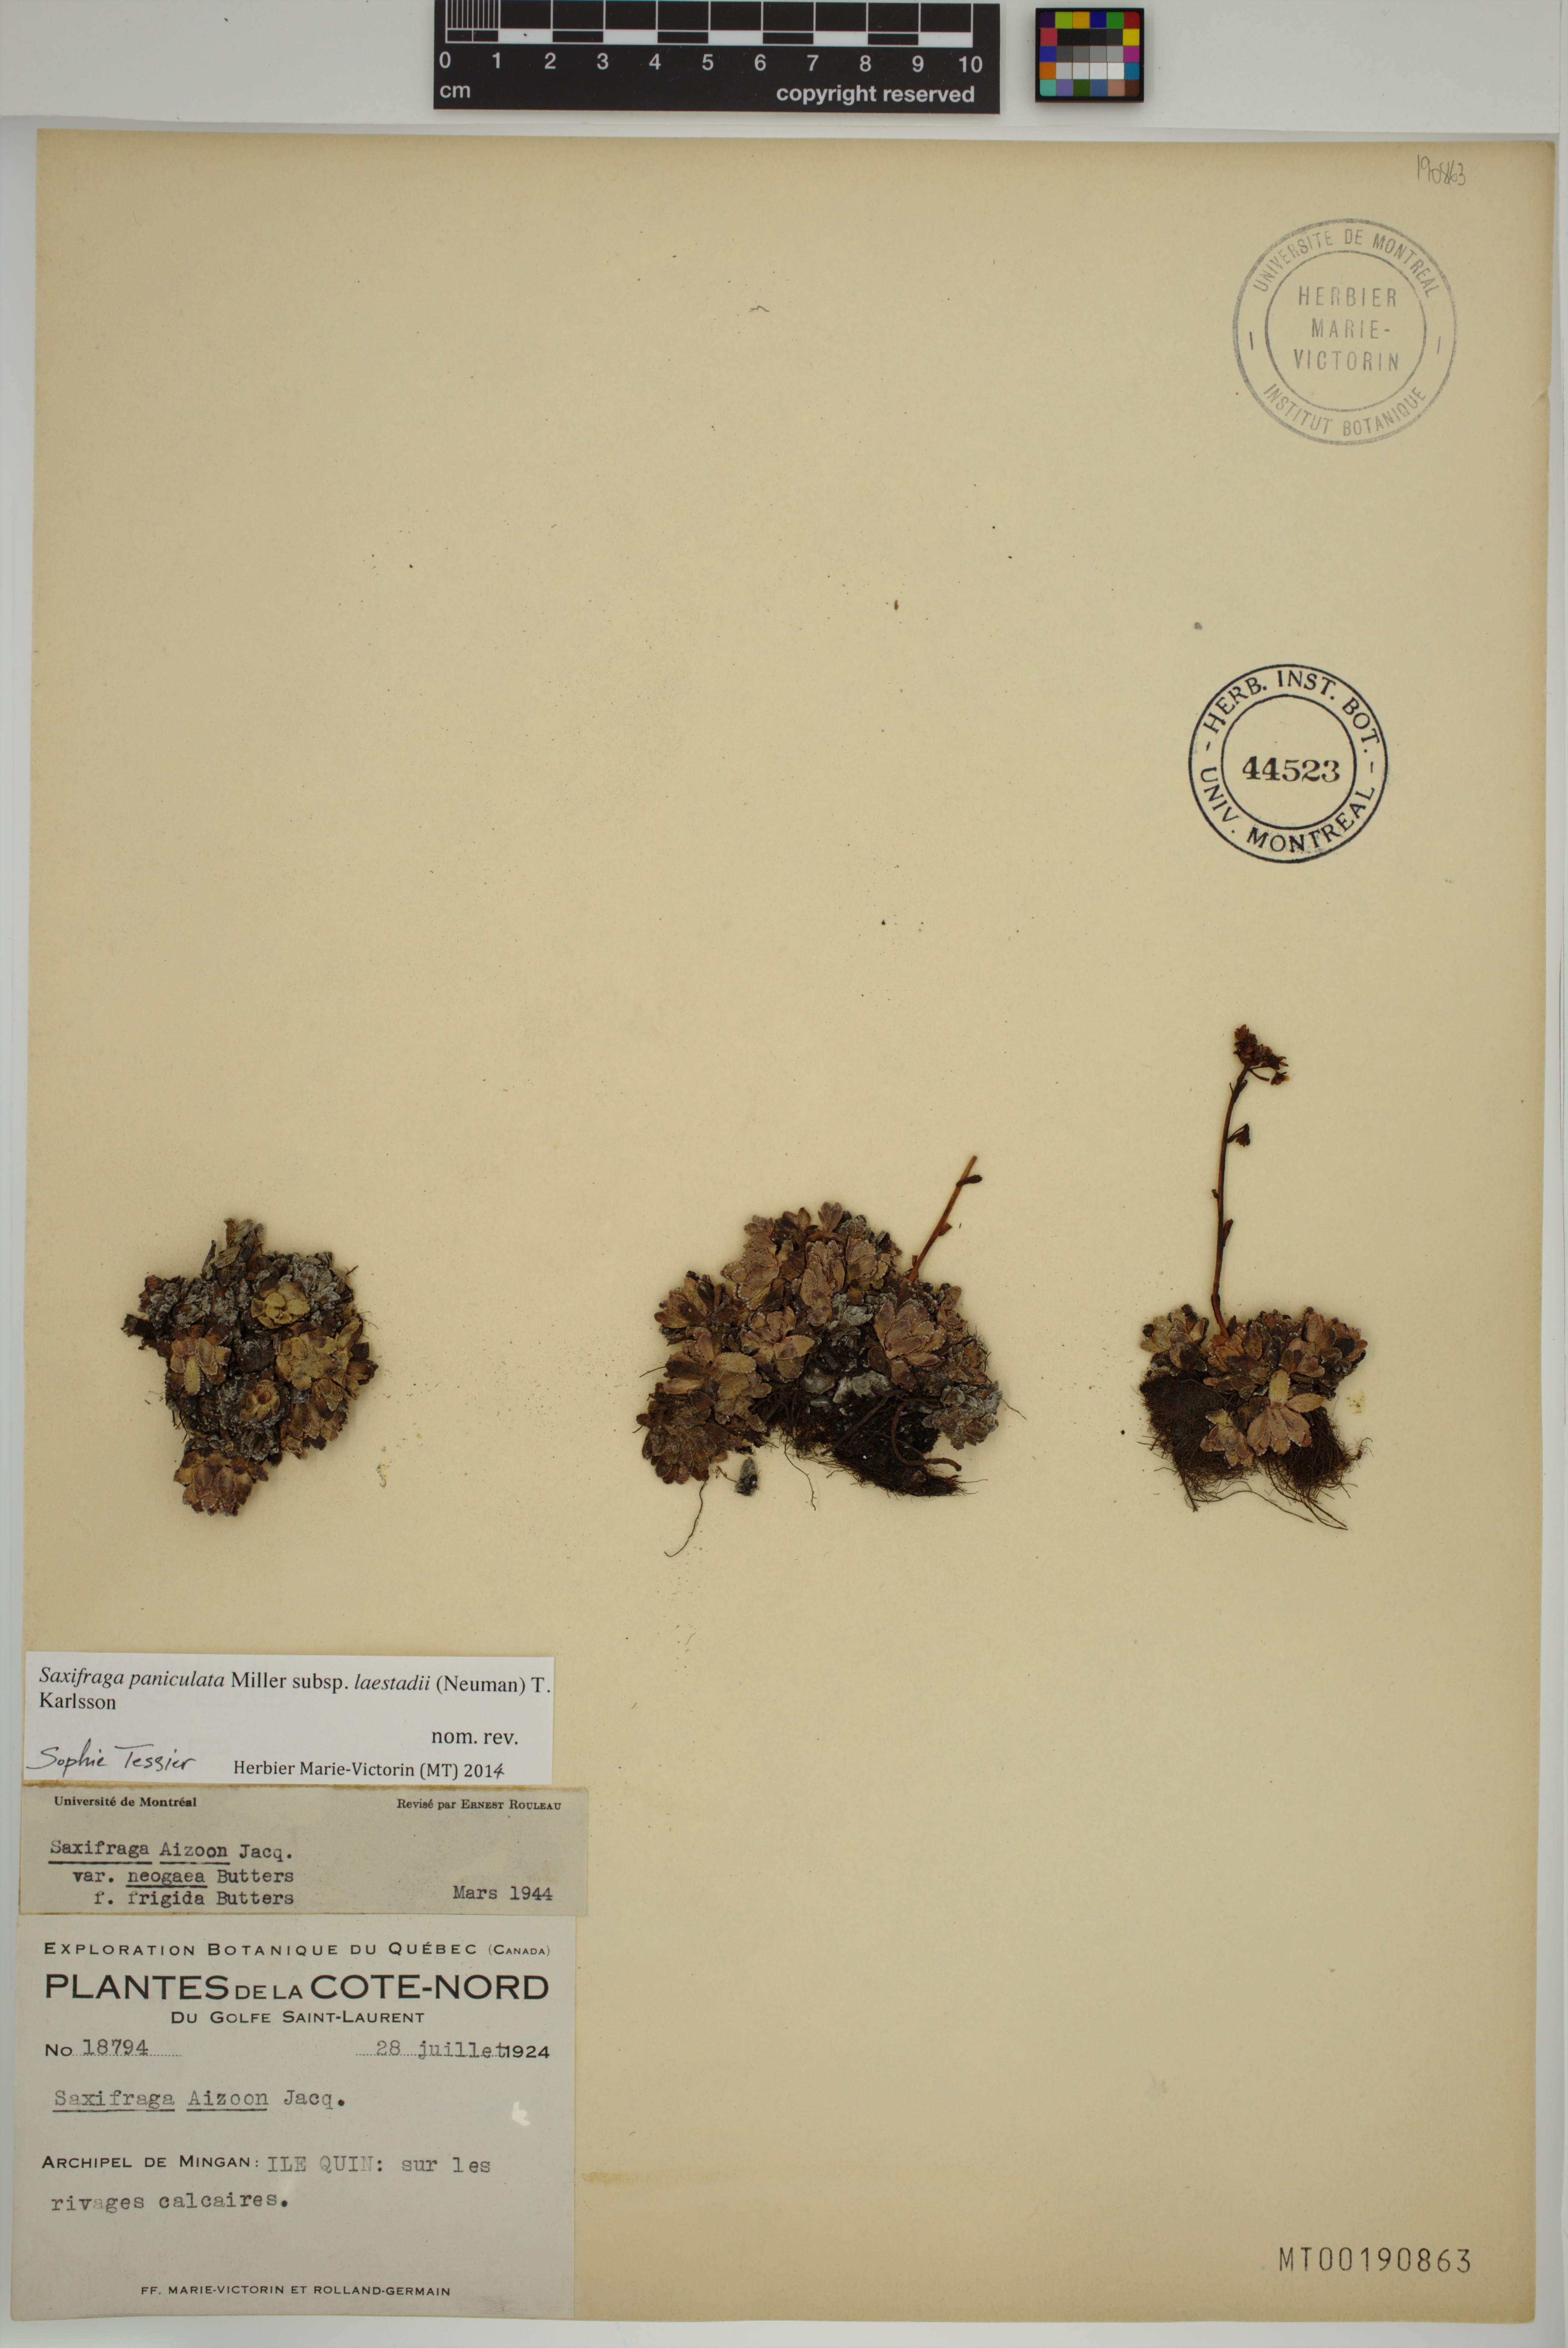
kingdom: Plantae
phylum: Tracheophyta
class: Magnoliopsida
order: Saxifragales
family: Saxifragaceae
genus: Saxifraga
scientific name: Saxifraga paniculata
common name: Livelong saxifrage
